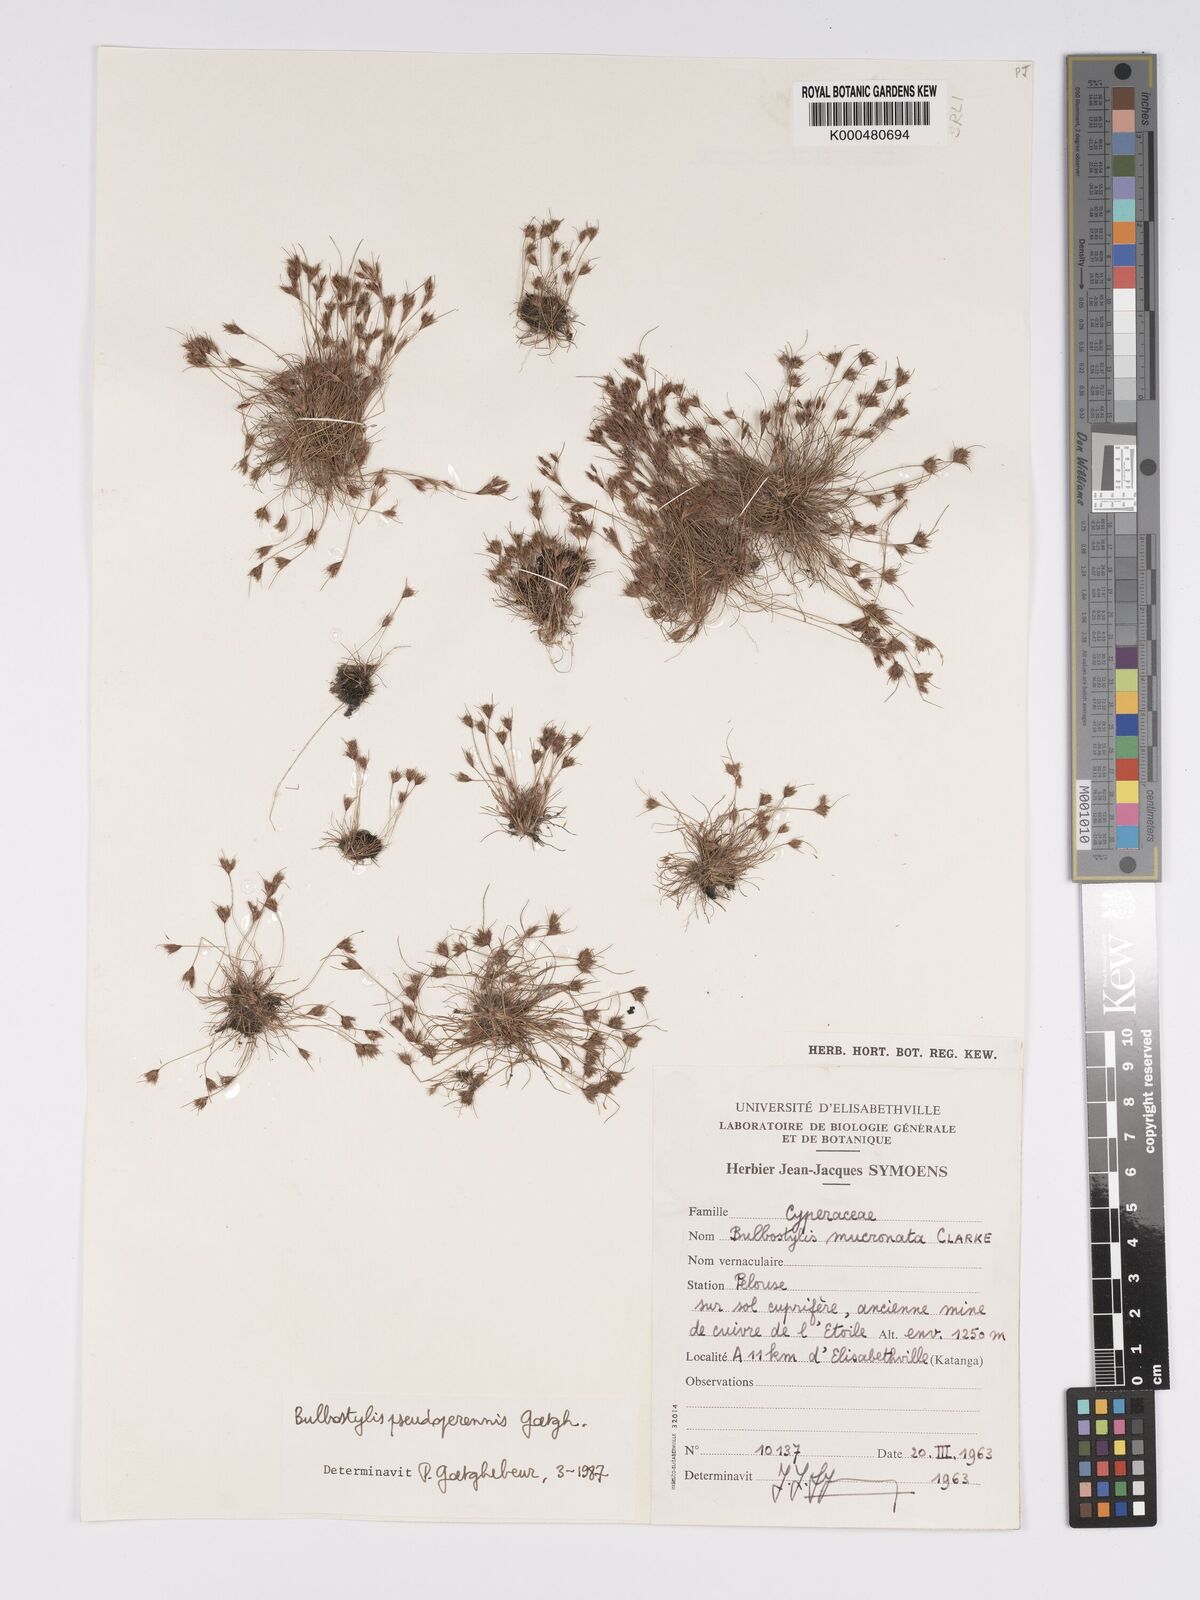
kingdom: Plantae
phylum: Tracheophyta
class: Liliopsida
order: Poales
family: Cyperaceae
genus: Bulbostylis
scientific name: Bulbostylis abbreviata
